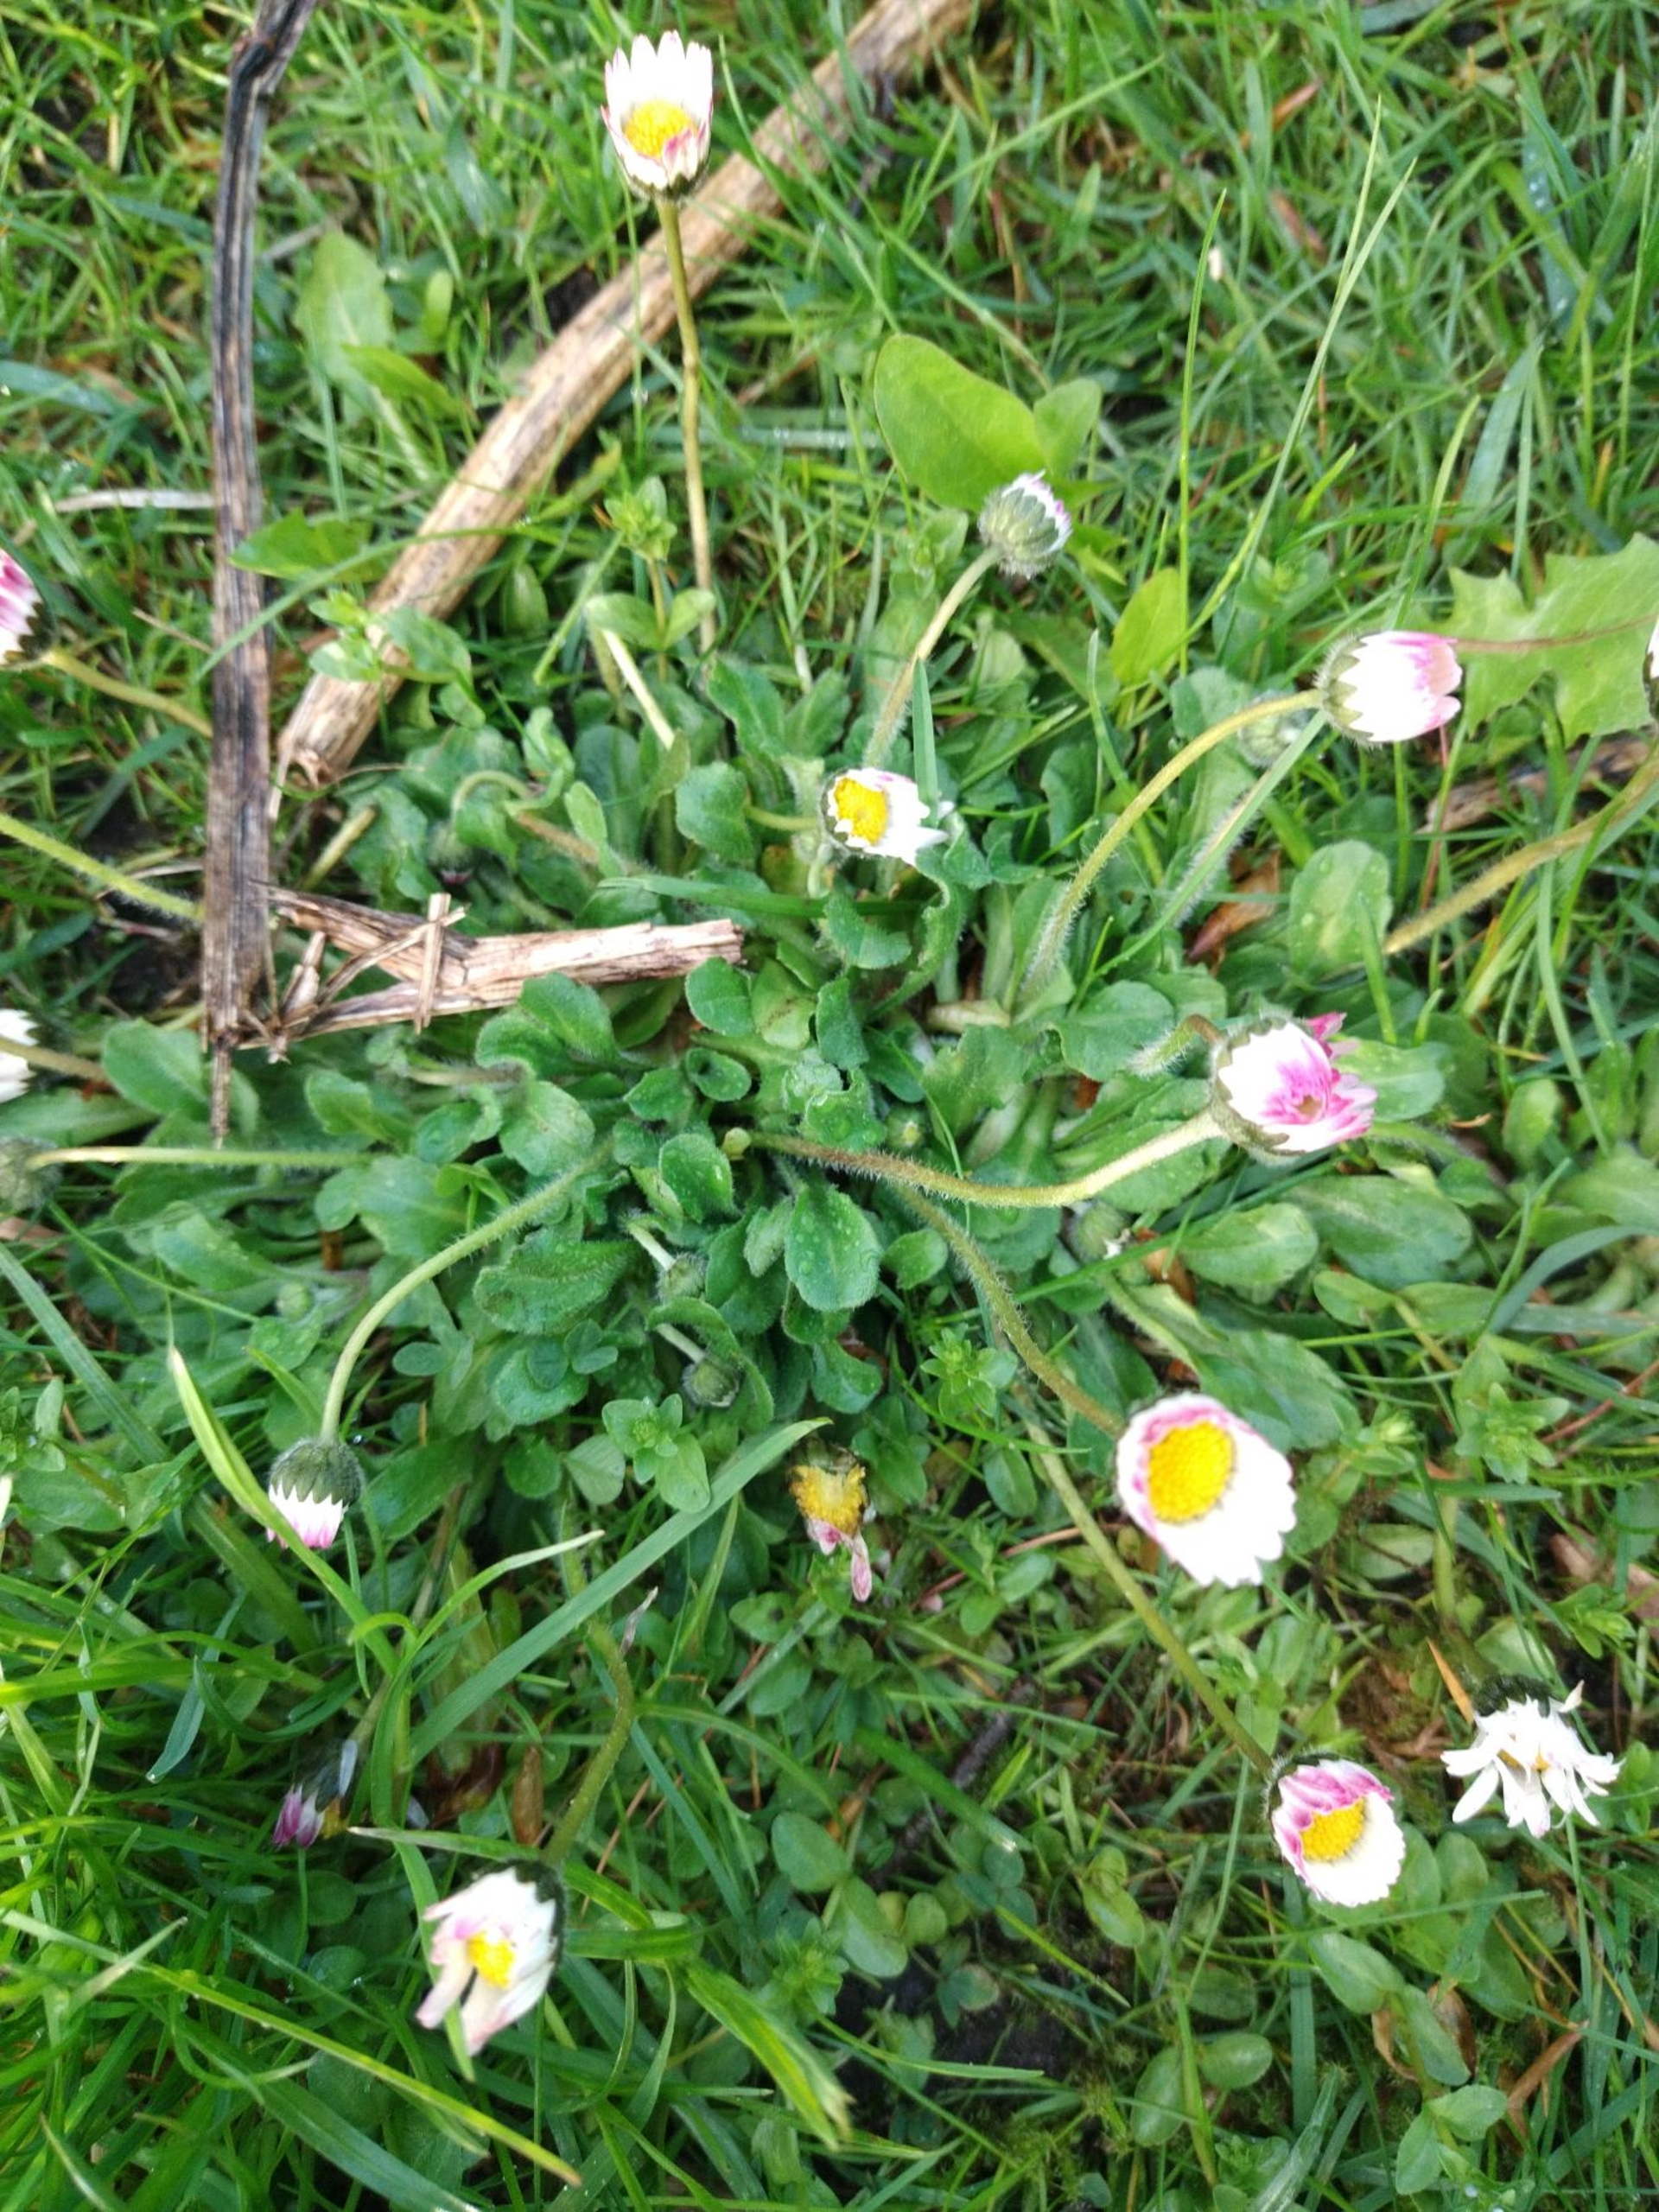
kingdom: Plantae
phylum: Tracheophyta
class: Magnoliopsida
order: Asterales
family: Asteraceae
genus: Bellis
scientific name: Bellis perennis
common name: Tusindfryd
